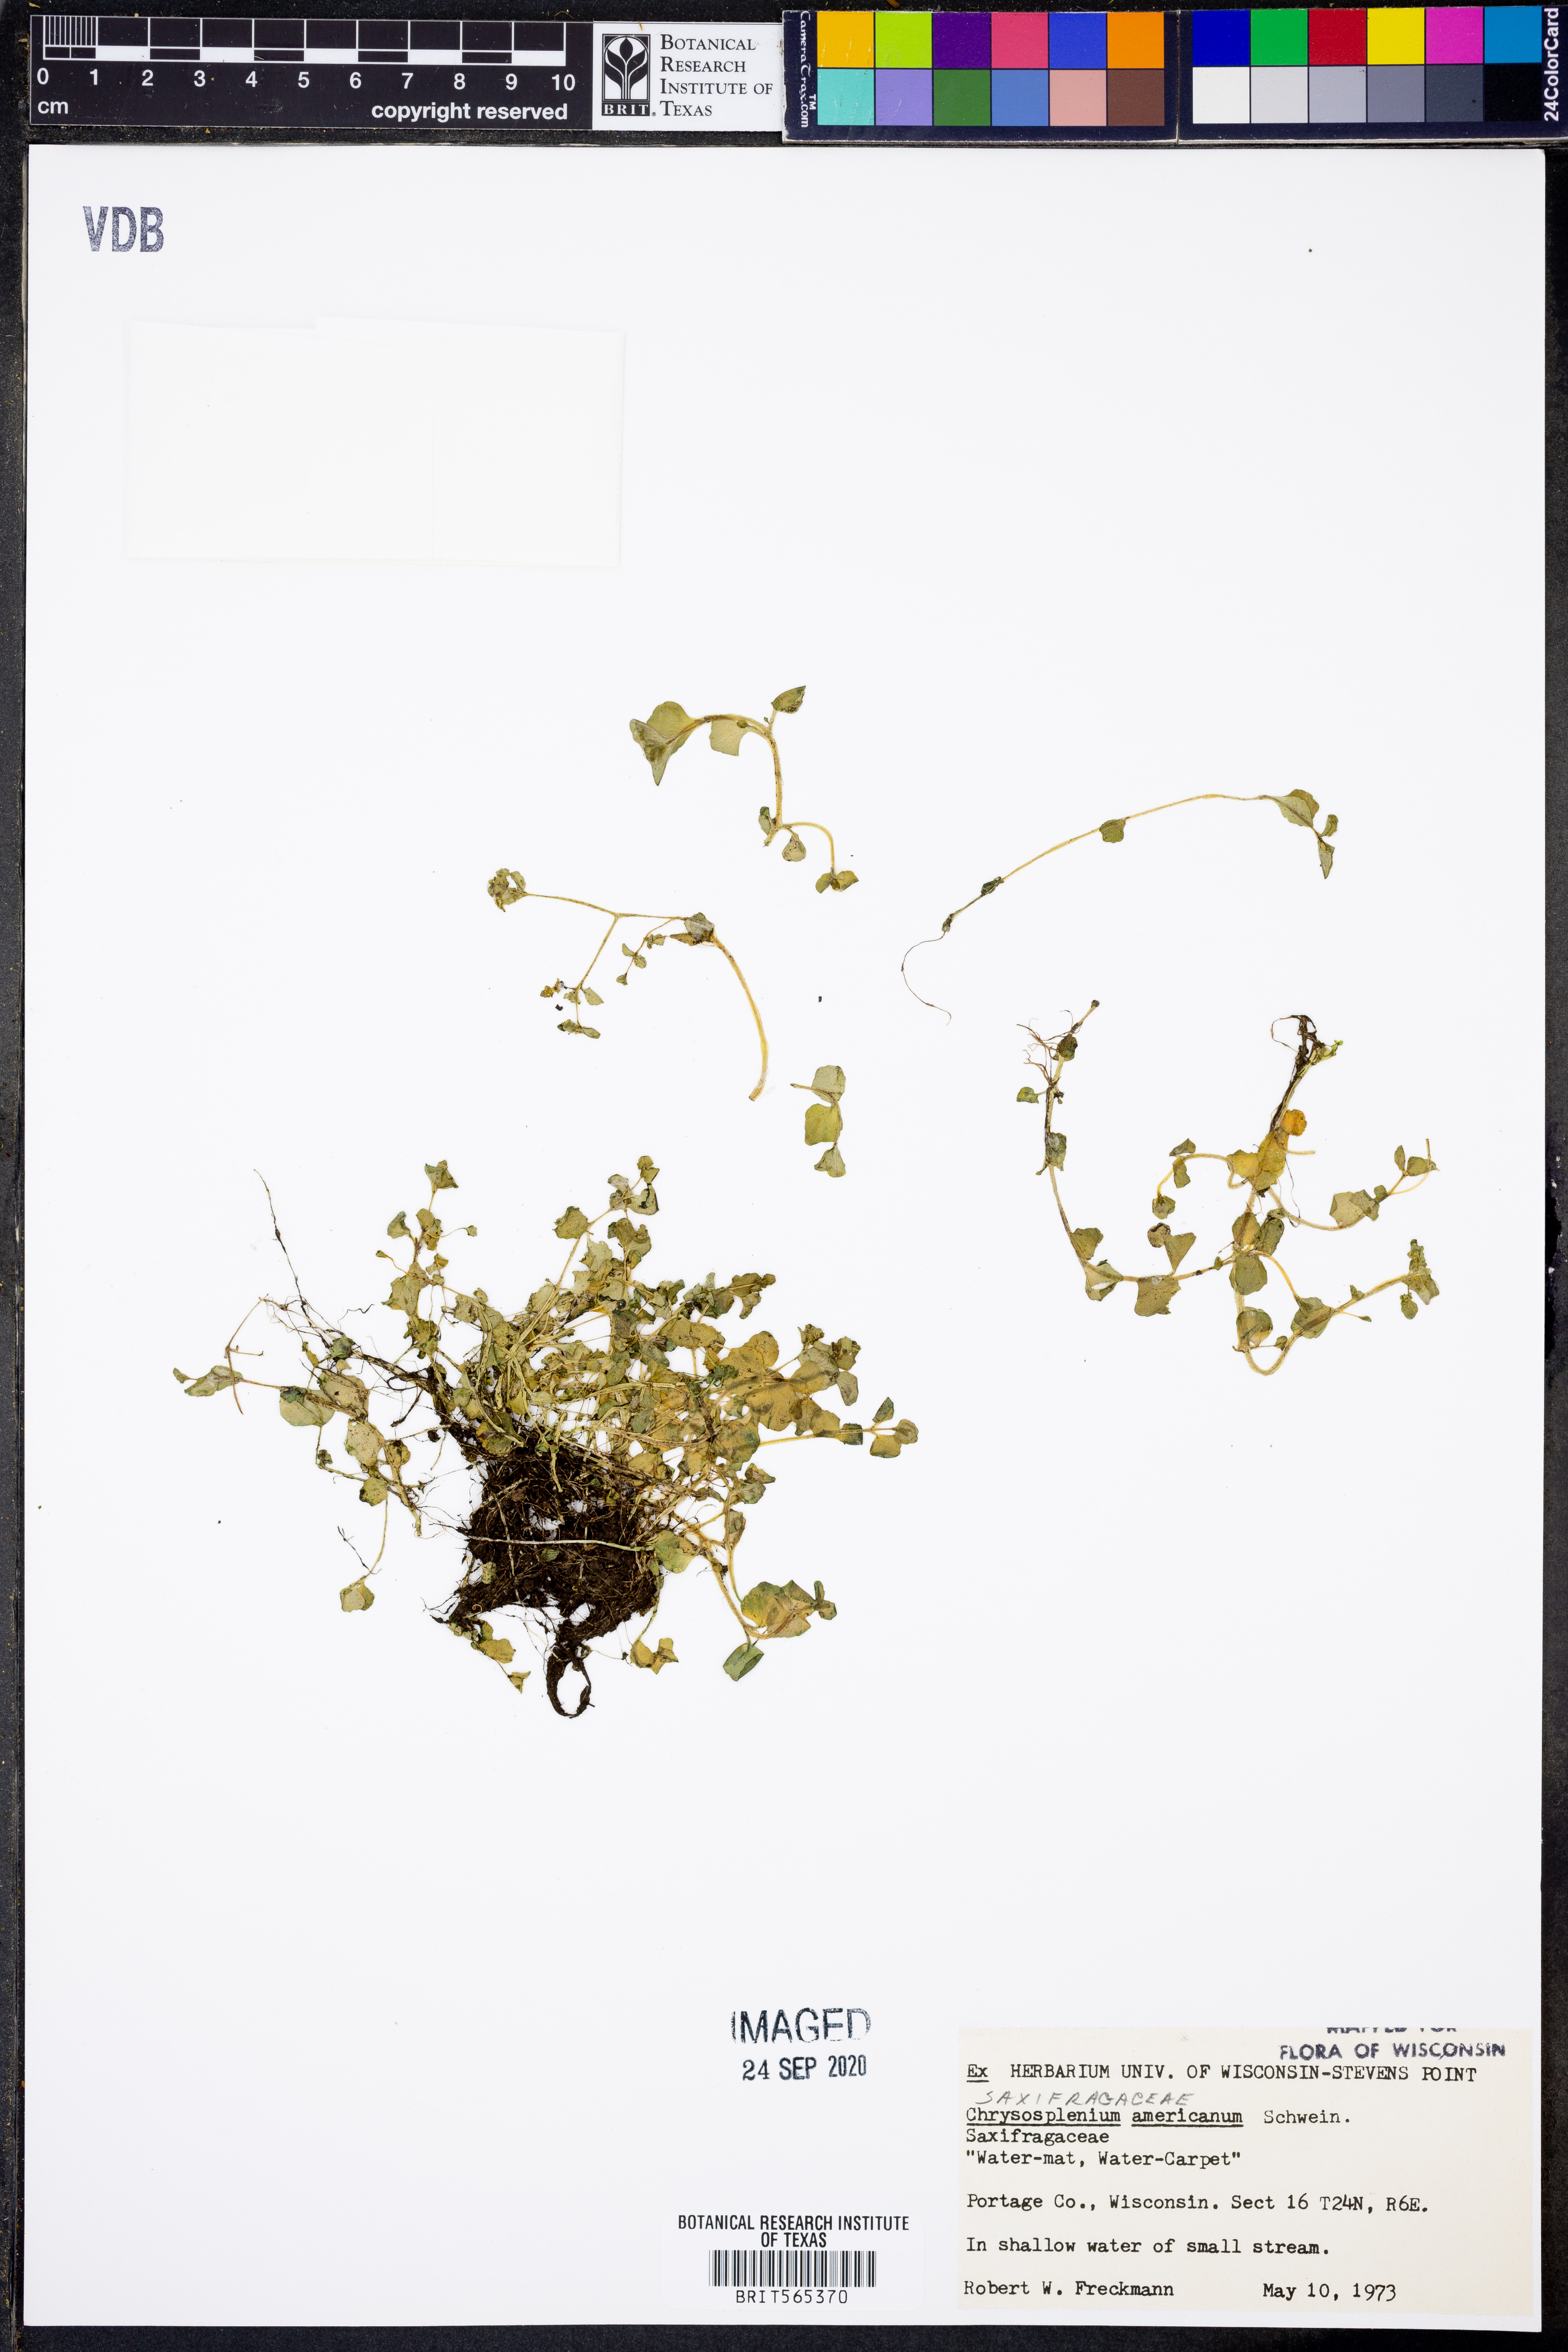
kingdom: Plantae
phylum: Tracheophyta
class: Magnoliopsida
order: Saxifragales
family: Saxifragaceae
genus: Chrysosplenium
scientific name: Chrysosplenium americanum
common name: American golden-saxifrage
